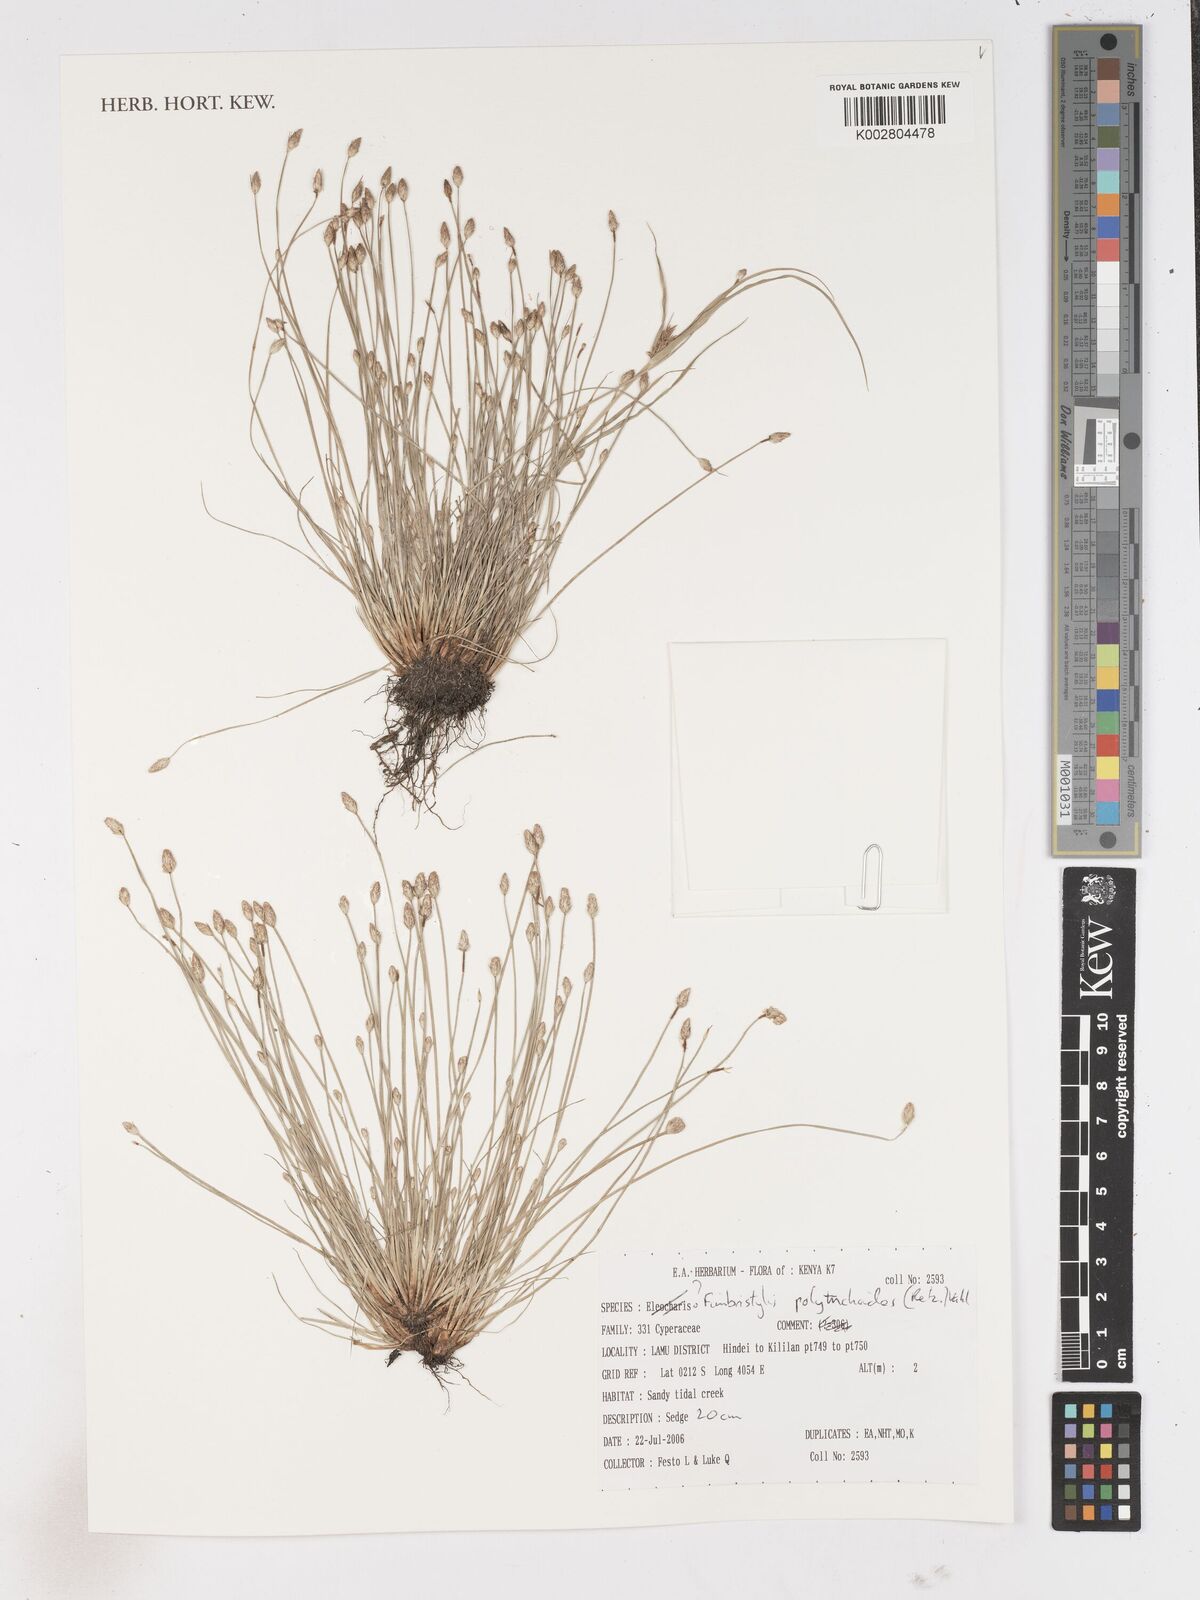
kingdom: Plantae
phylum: Tracheophyta
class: Liliopsida
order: Poales
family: Cyperaceae
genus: Fimbristylis
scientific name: Fimbristylis polytrichoides
